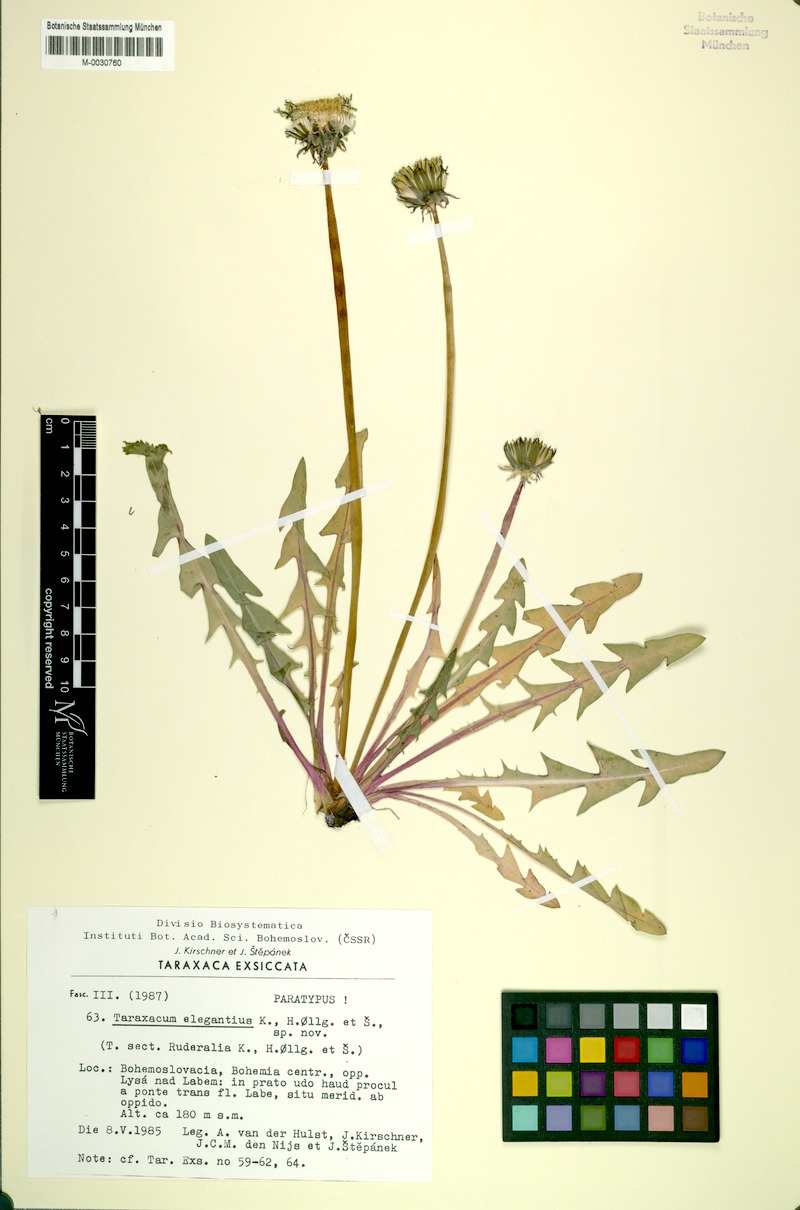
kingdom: Plantae
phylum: Tracheophyta
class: Magnoliopsida
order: Asterales
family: Asteraceae
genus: Taraxacum
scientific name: Taraxacum elegantius
